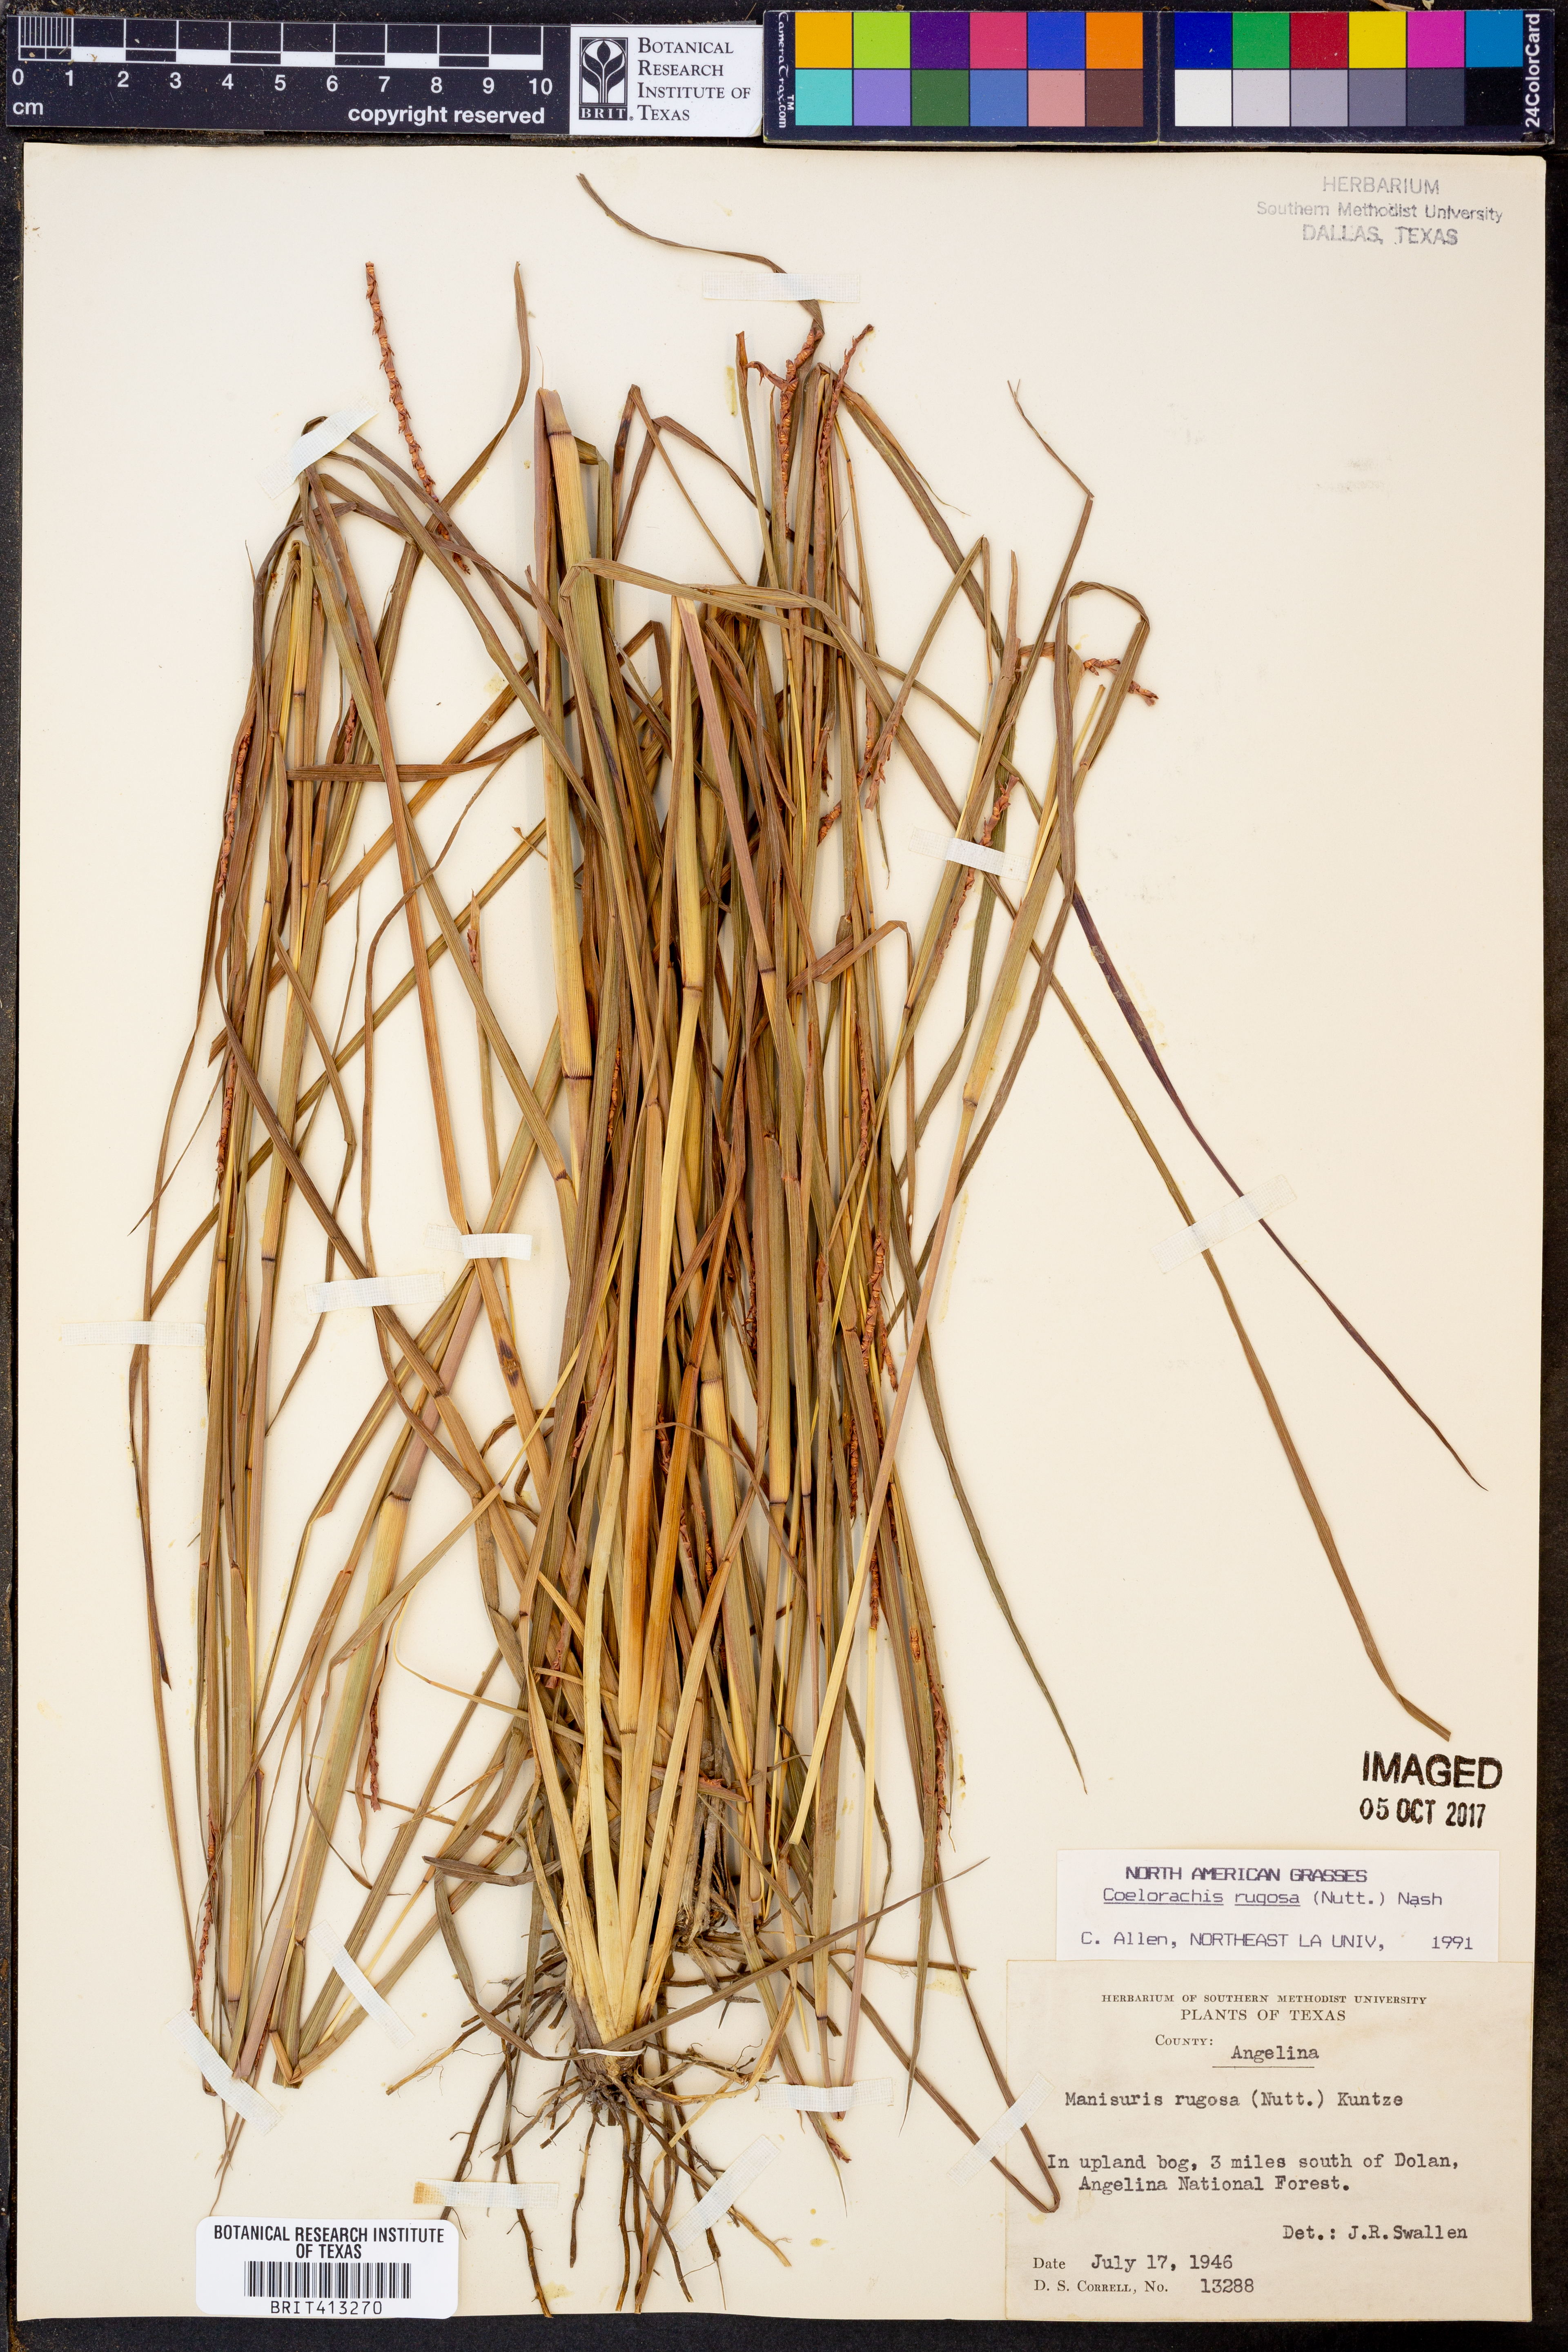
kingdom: Plantae
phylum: Tracheophyta
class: Liliopsida
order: Poales
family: Poaceae
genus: Rottboellia
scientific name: Rottboellia rugosa
